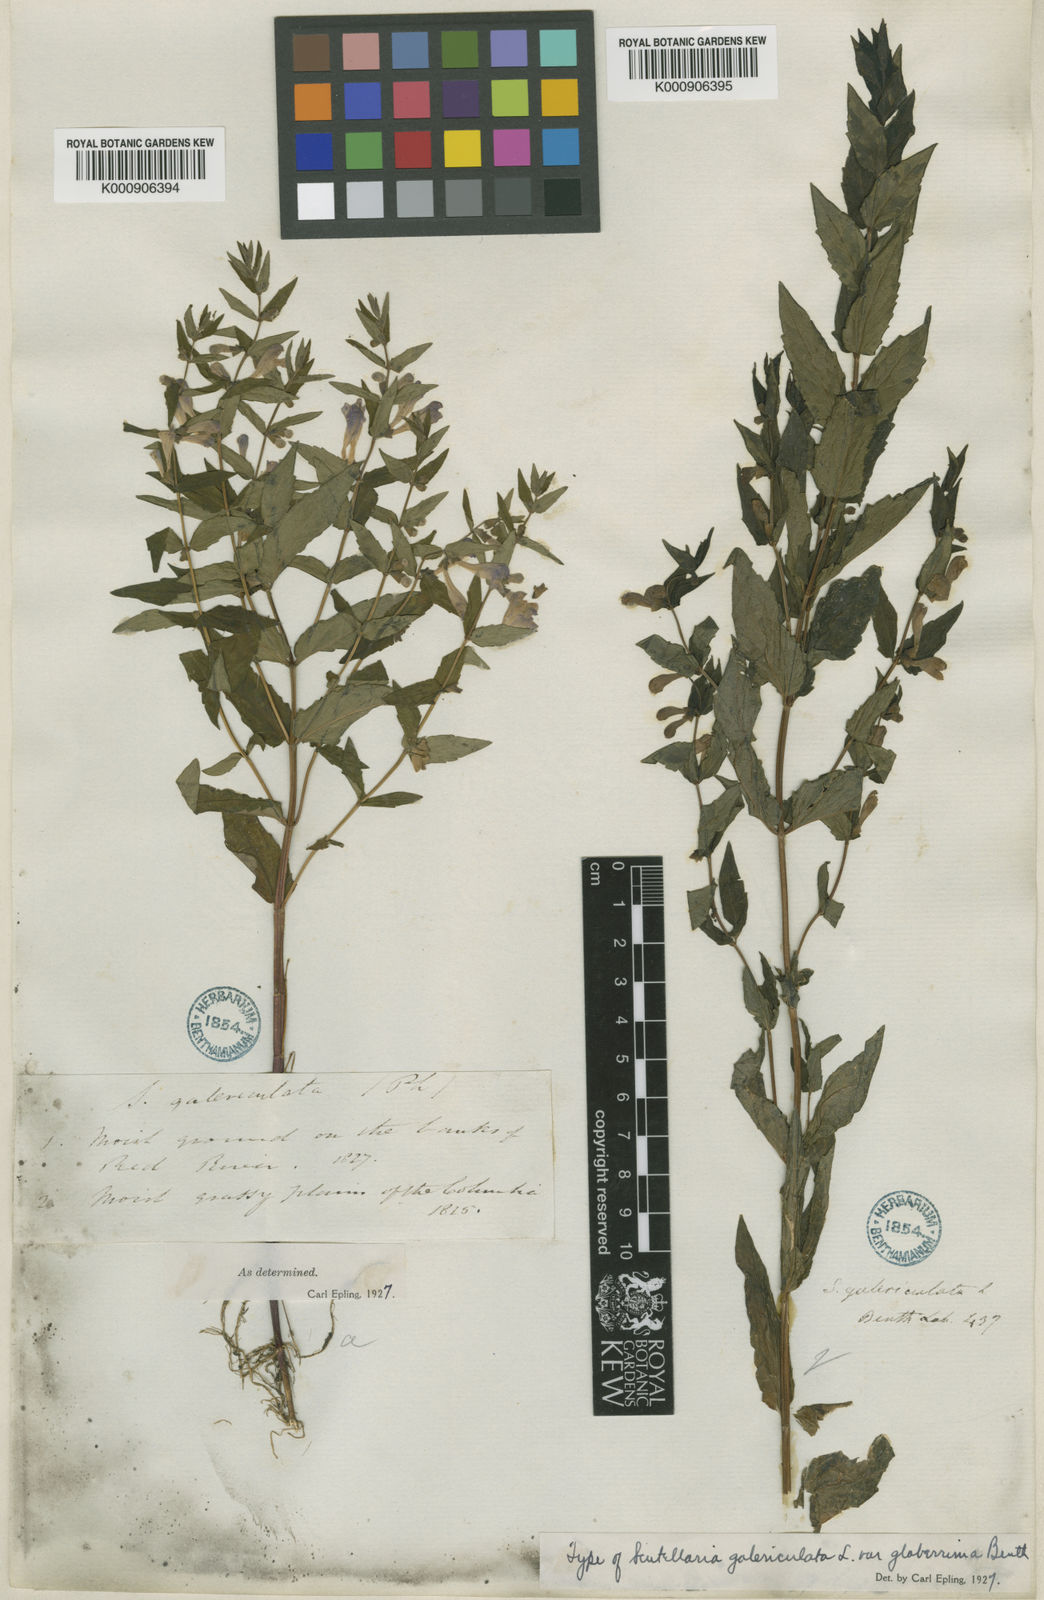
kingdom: Plantae
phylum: Tracheophyta
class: Magnoliopsida
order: Lamiales
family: Lamiaceae
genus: Scutellaria
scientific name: Scutellaria galericulata
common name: Skullcap
